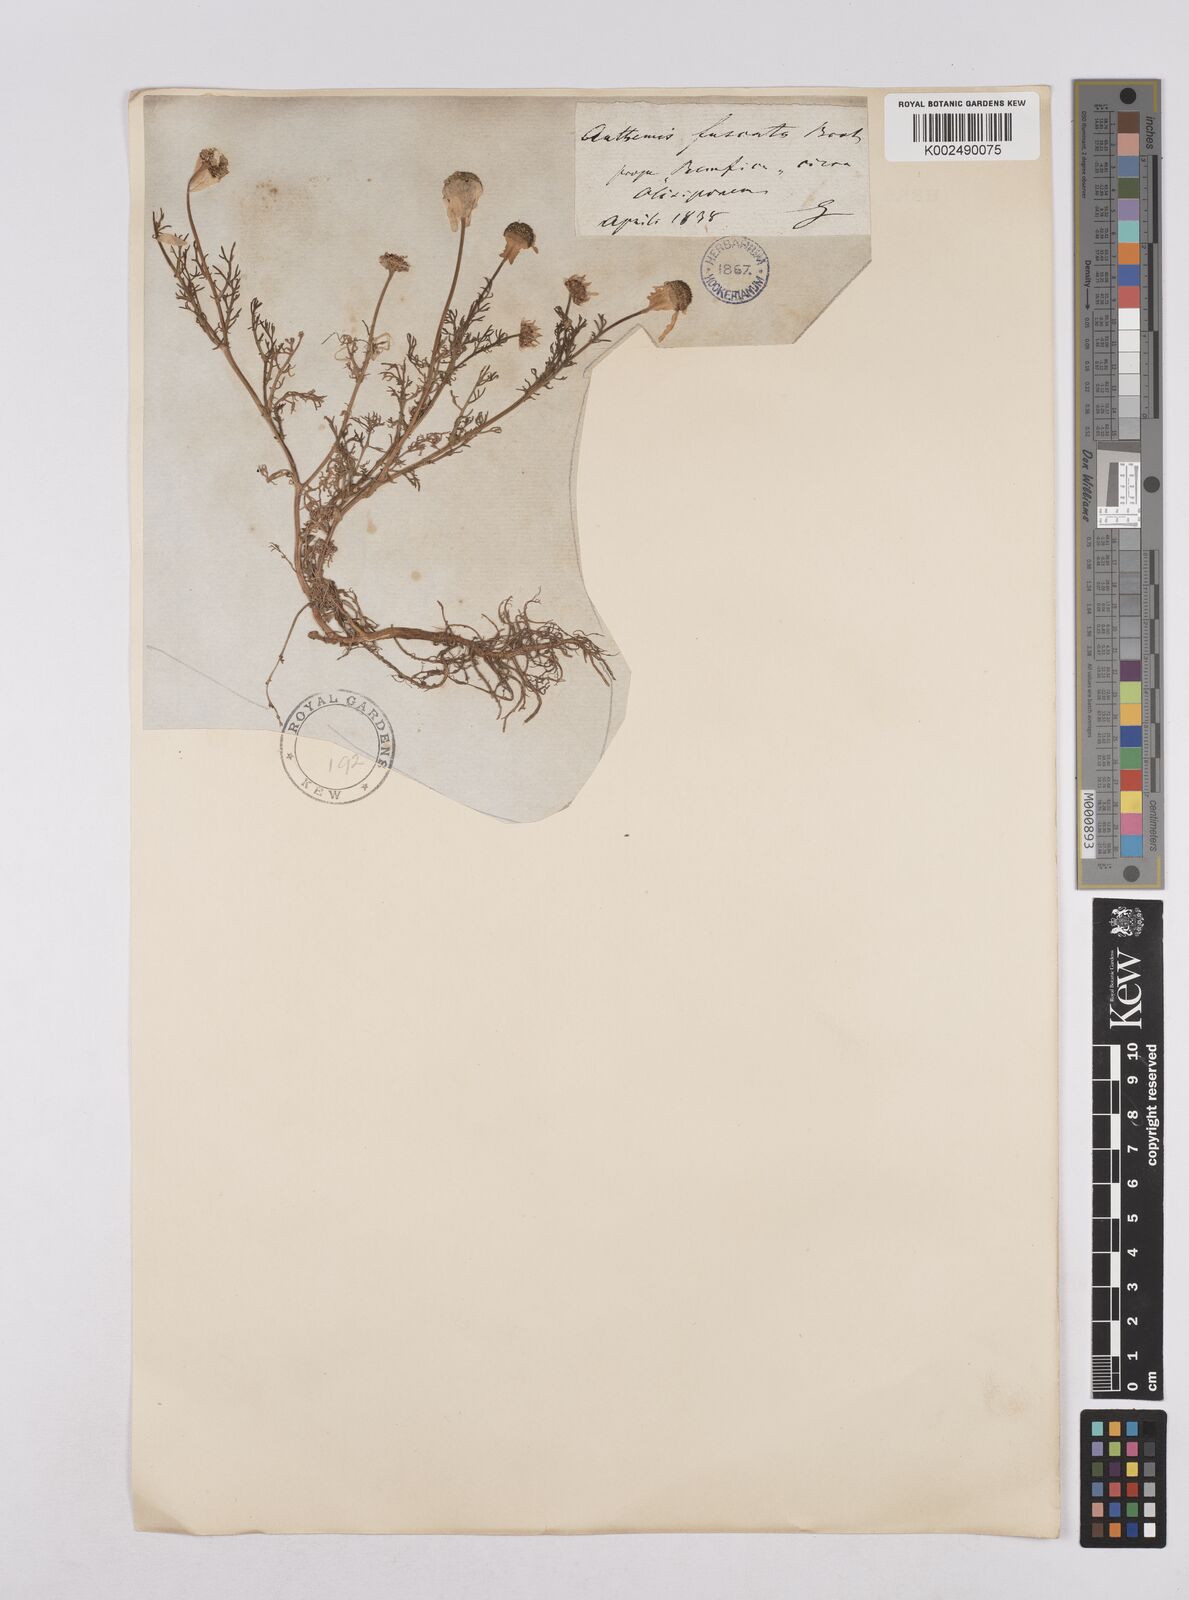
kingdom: Plantae
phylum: Tracheophyta
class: Magnoliopsida
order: Asterales
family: Asteraceae
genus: Chamaemelum
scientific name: Chamaemelum fuscatum
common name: Chamomile
